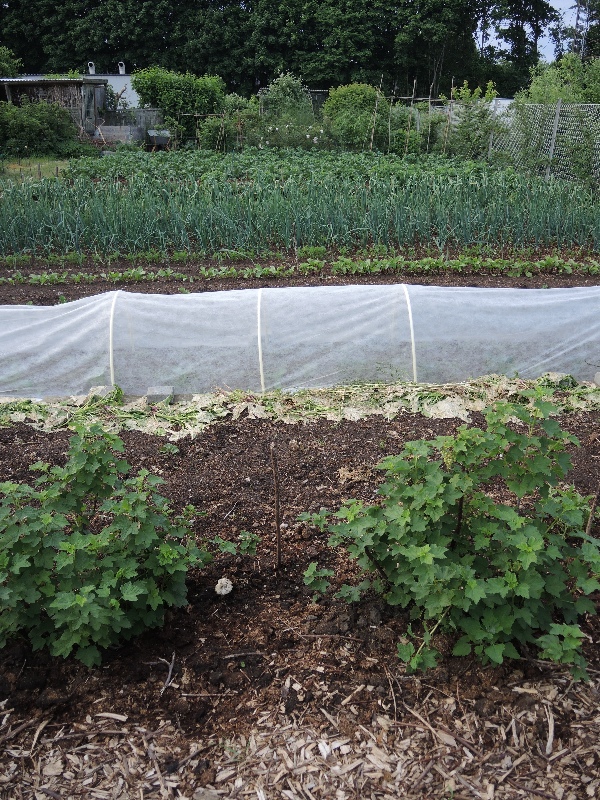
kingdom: Fungi
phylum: Basidiomycota
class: Agaricomycetes
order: Agaricales
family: Pluteaceae
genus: Volvopluteus
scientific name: Volvopluteus gloiocephalus
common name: høj posesvamp
